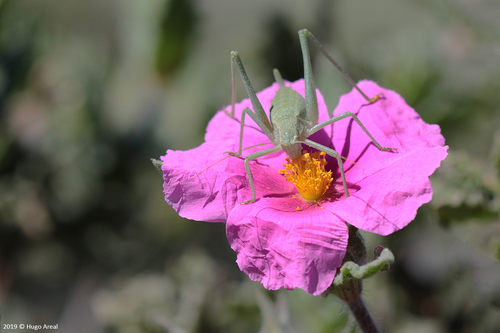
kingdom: Animalia
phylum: Arthropoda
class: Insecta
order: Orthoptera
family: Tettigoniidae
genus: Odontura
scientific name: Odontura glabricauda
